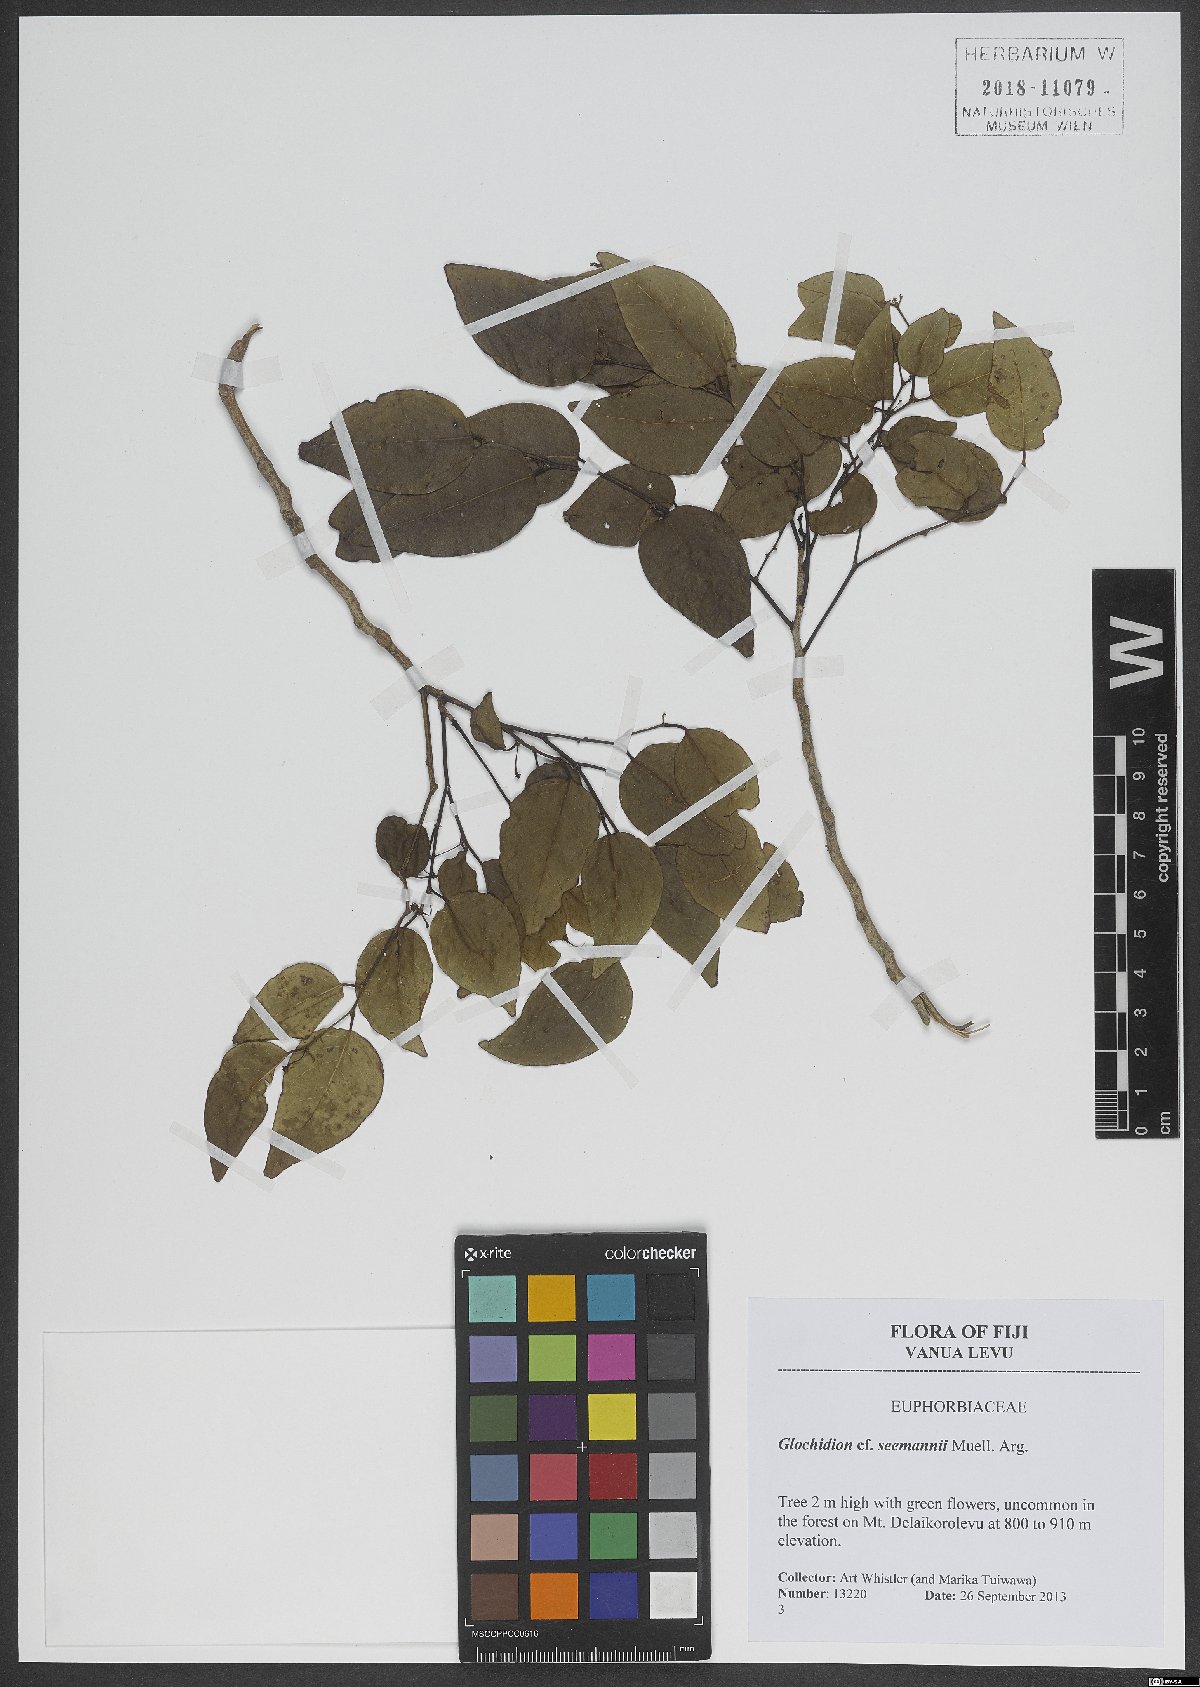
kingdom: Plantae
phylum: Tracheophyta
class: Magnoliopsida
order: Malpighiales
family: Phyllanthaceae
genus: Glochidion
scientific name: Glochidion seemannii
